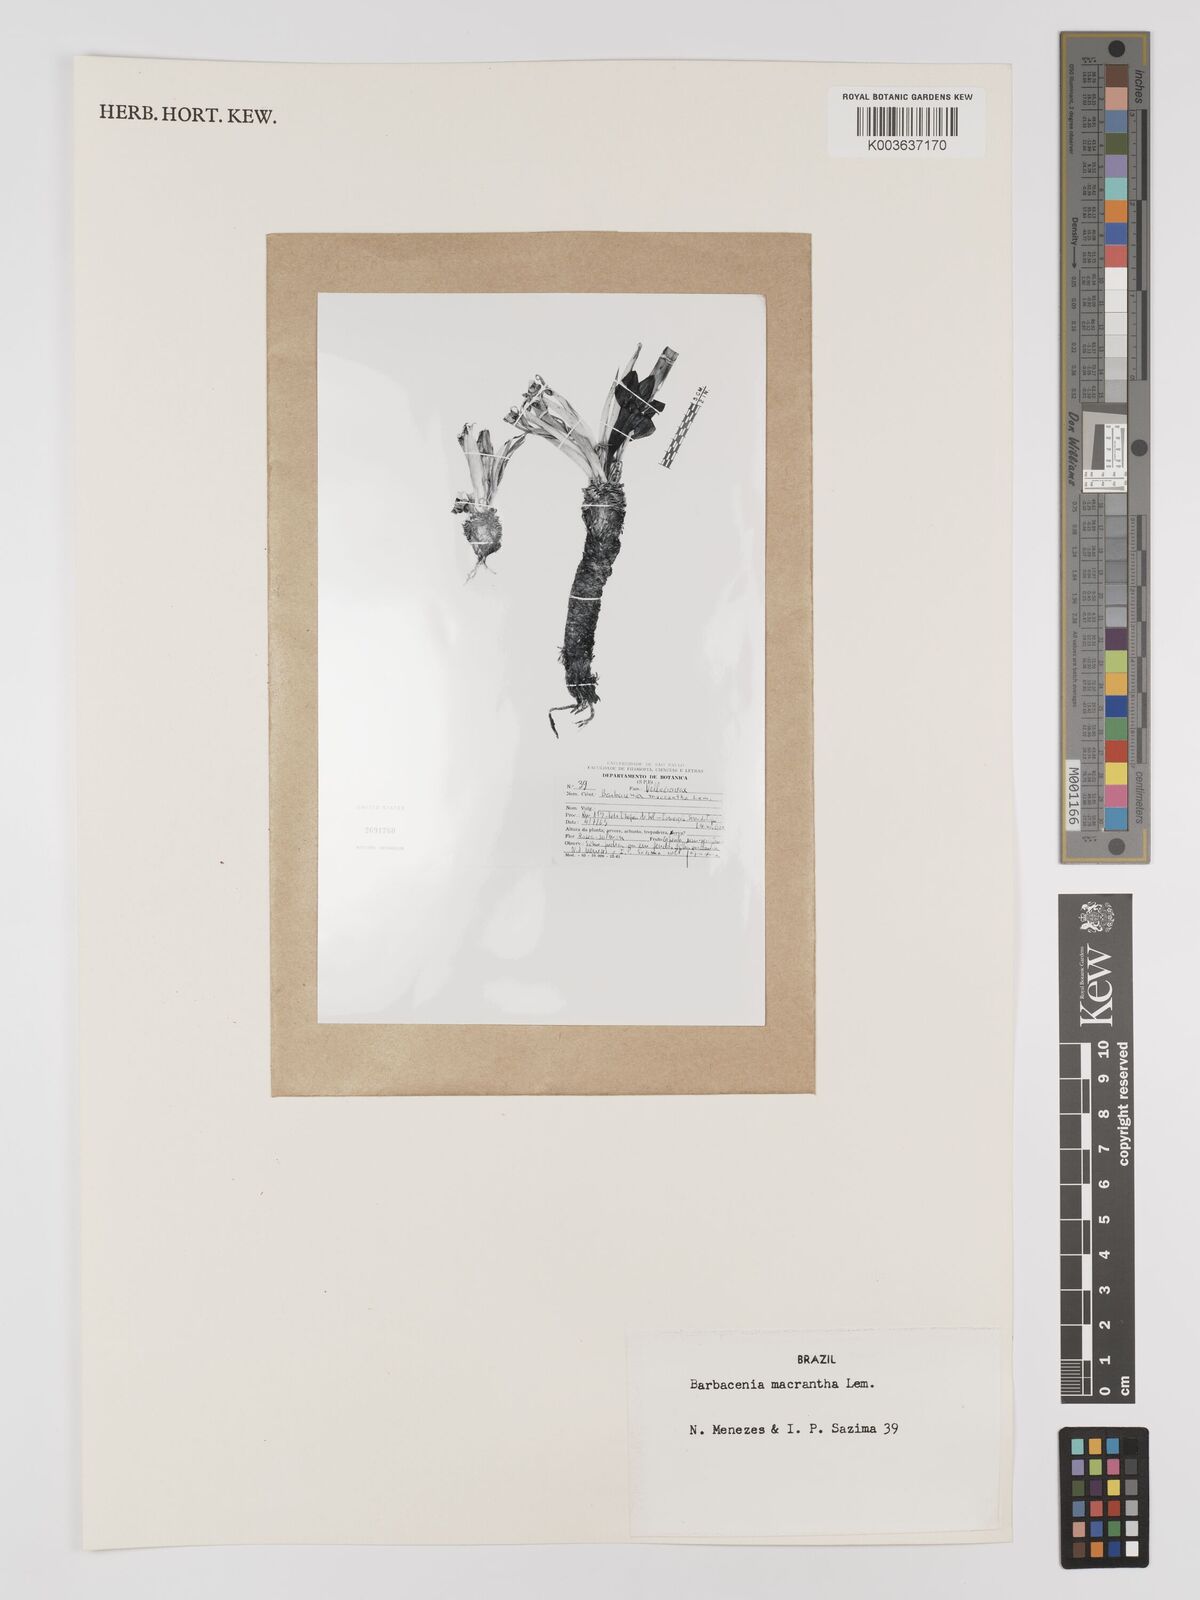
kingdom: Plantae
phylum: Tracheophyta
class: Liliopsida
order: Pandanales
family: Velloziaceae
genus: Barbacenia
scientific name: Barbacenia macrantha
